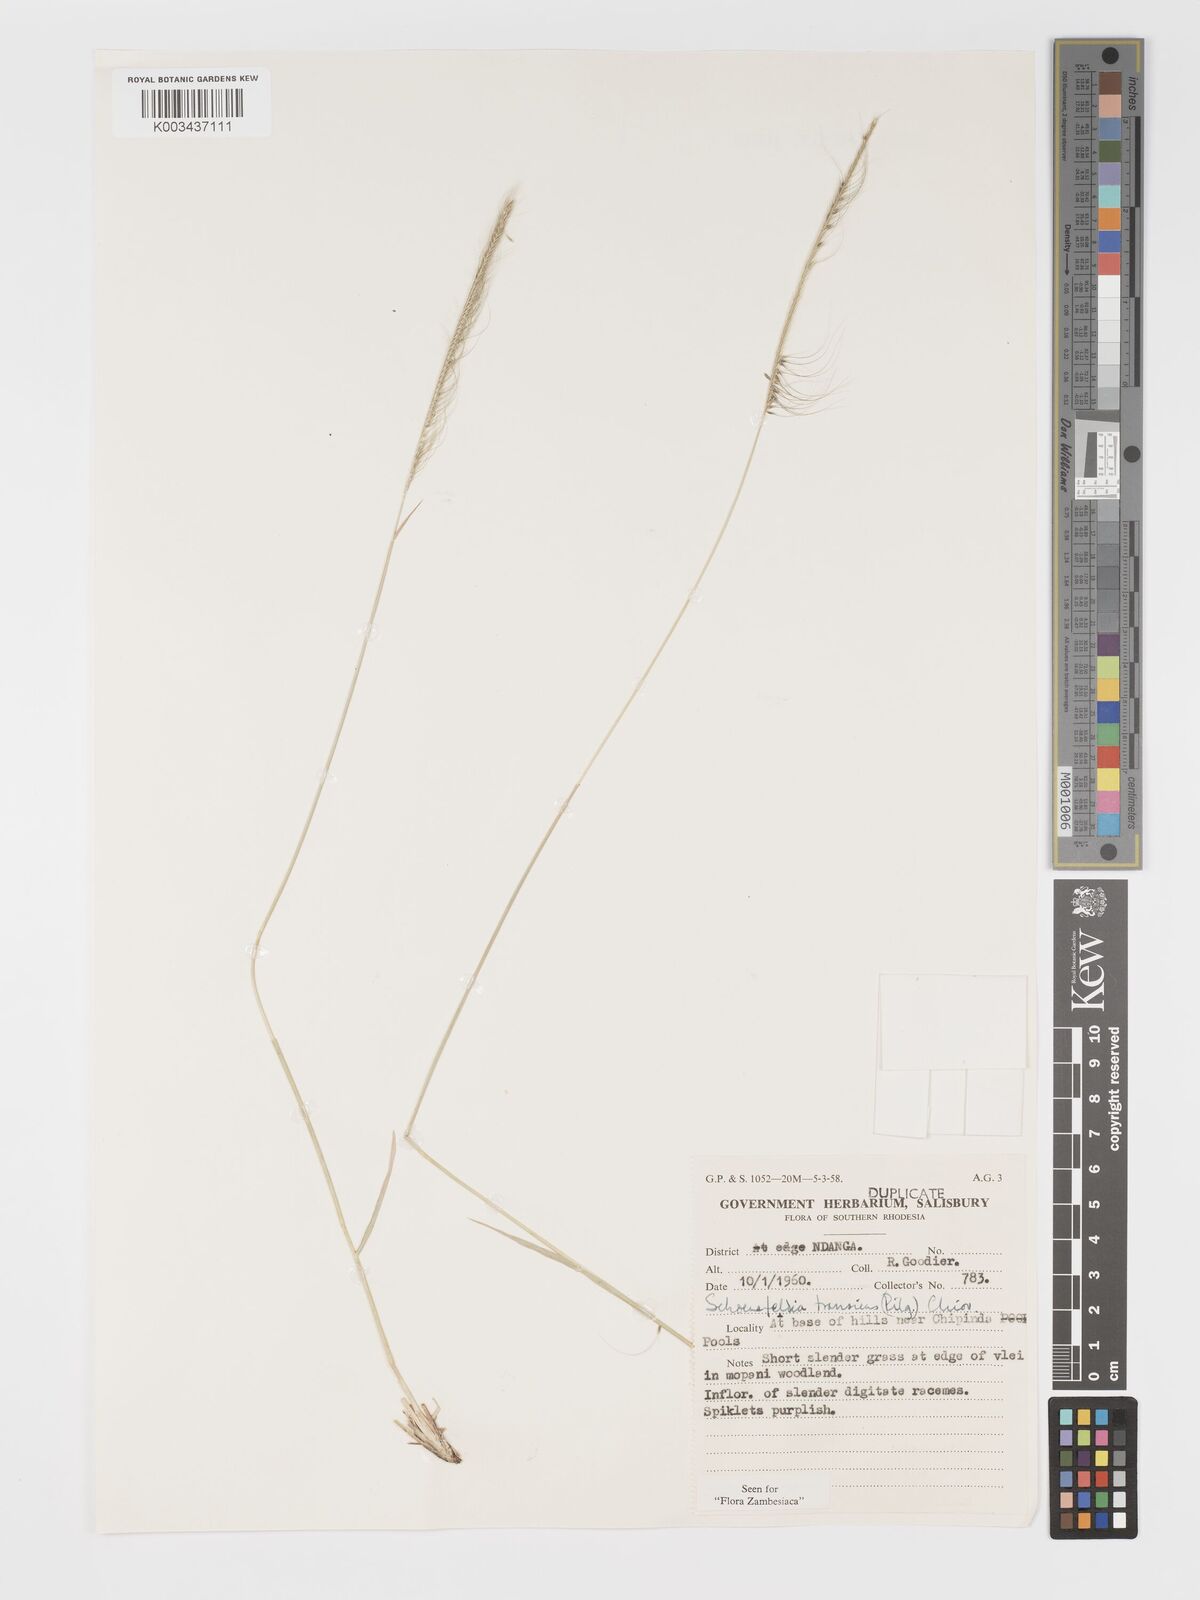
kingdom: Plantae
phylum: Tracheophyta
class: Liliopsida
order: Poales
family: Poaceae
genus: Schoenefeldia
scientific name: Schoenefeldia transiens
